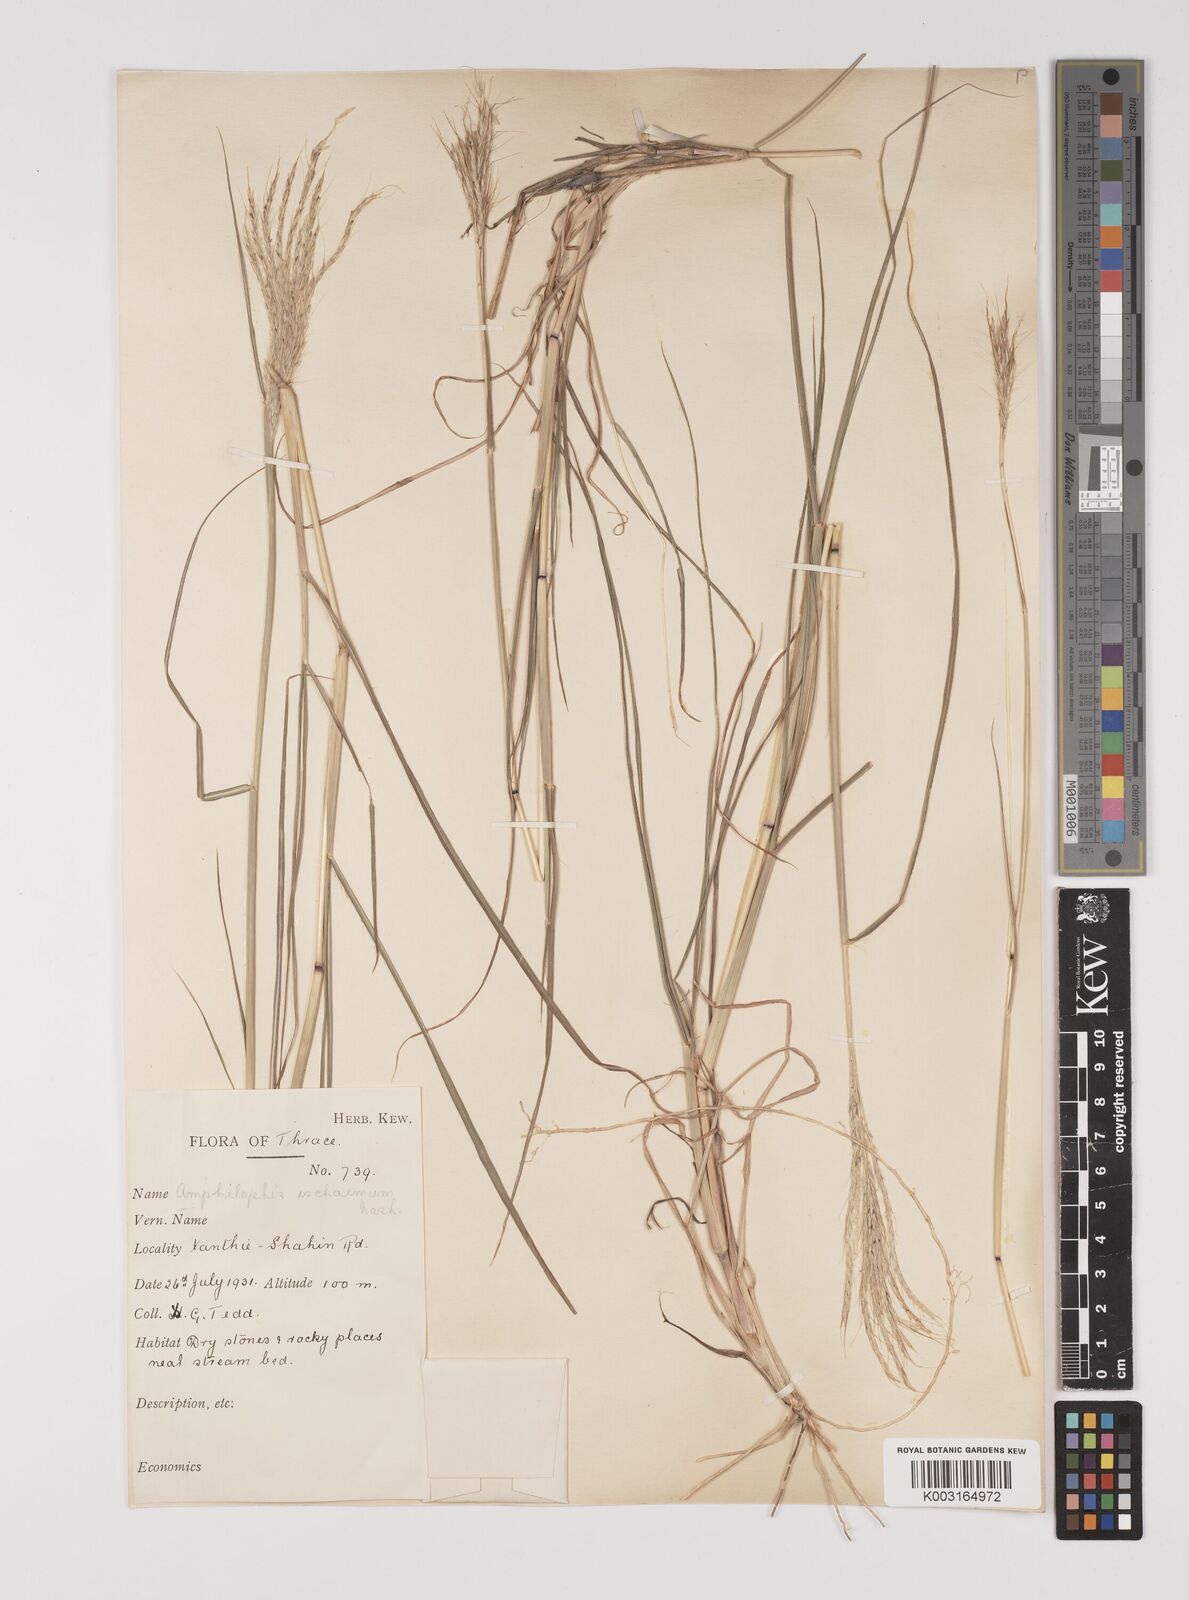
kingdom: Plantae
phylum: Tracheophyta
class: Liliopsida
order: Poales
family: Poaceae
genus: Bothriochloa
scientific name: Bothriochloa ischaemum
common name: Yellow bluestem
